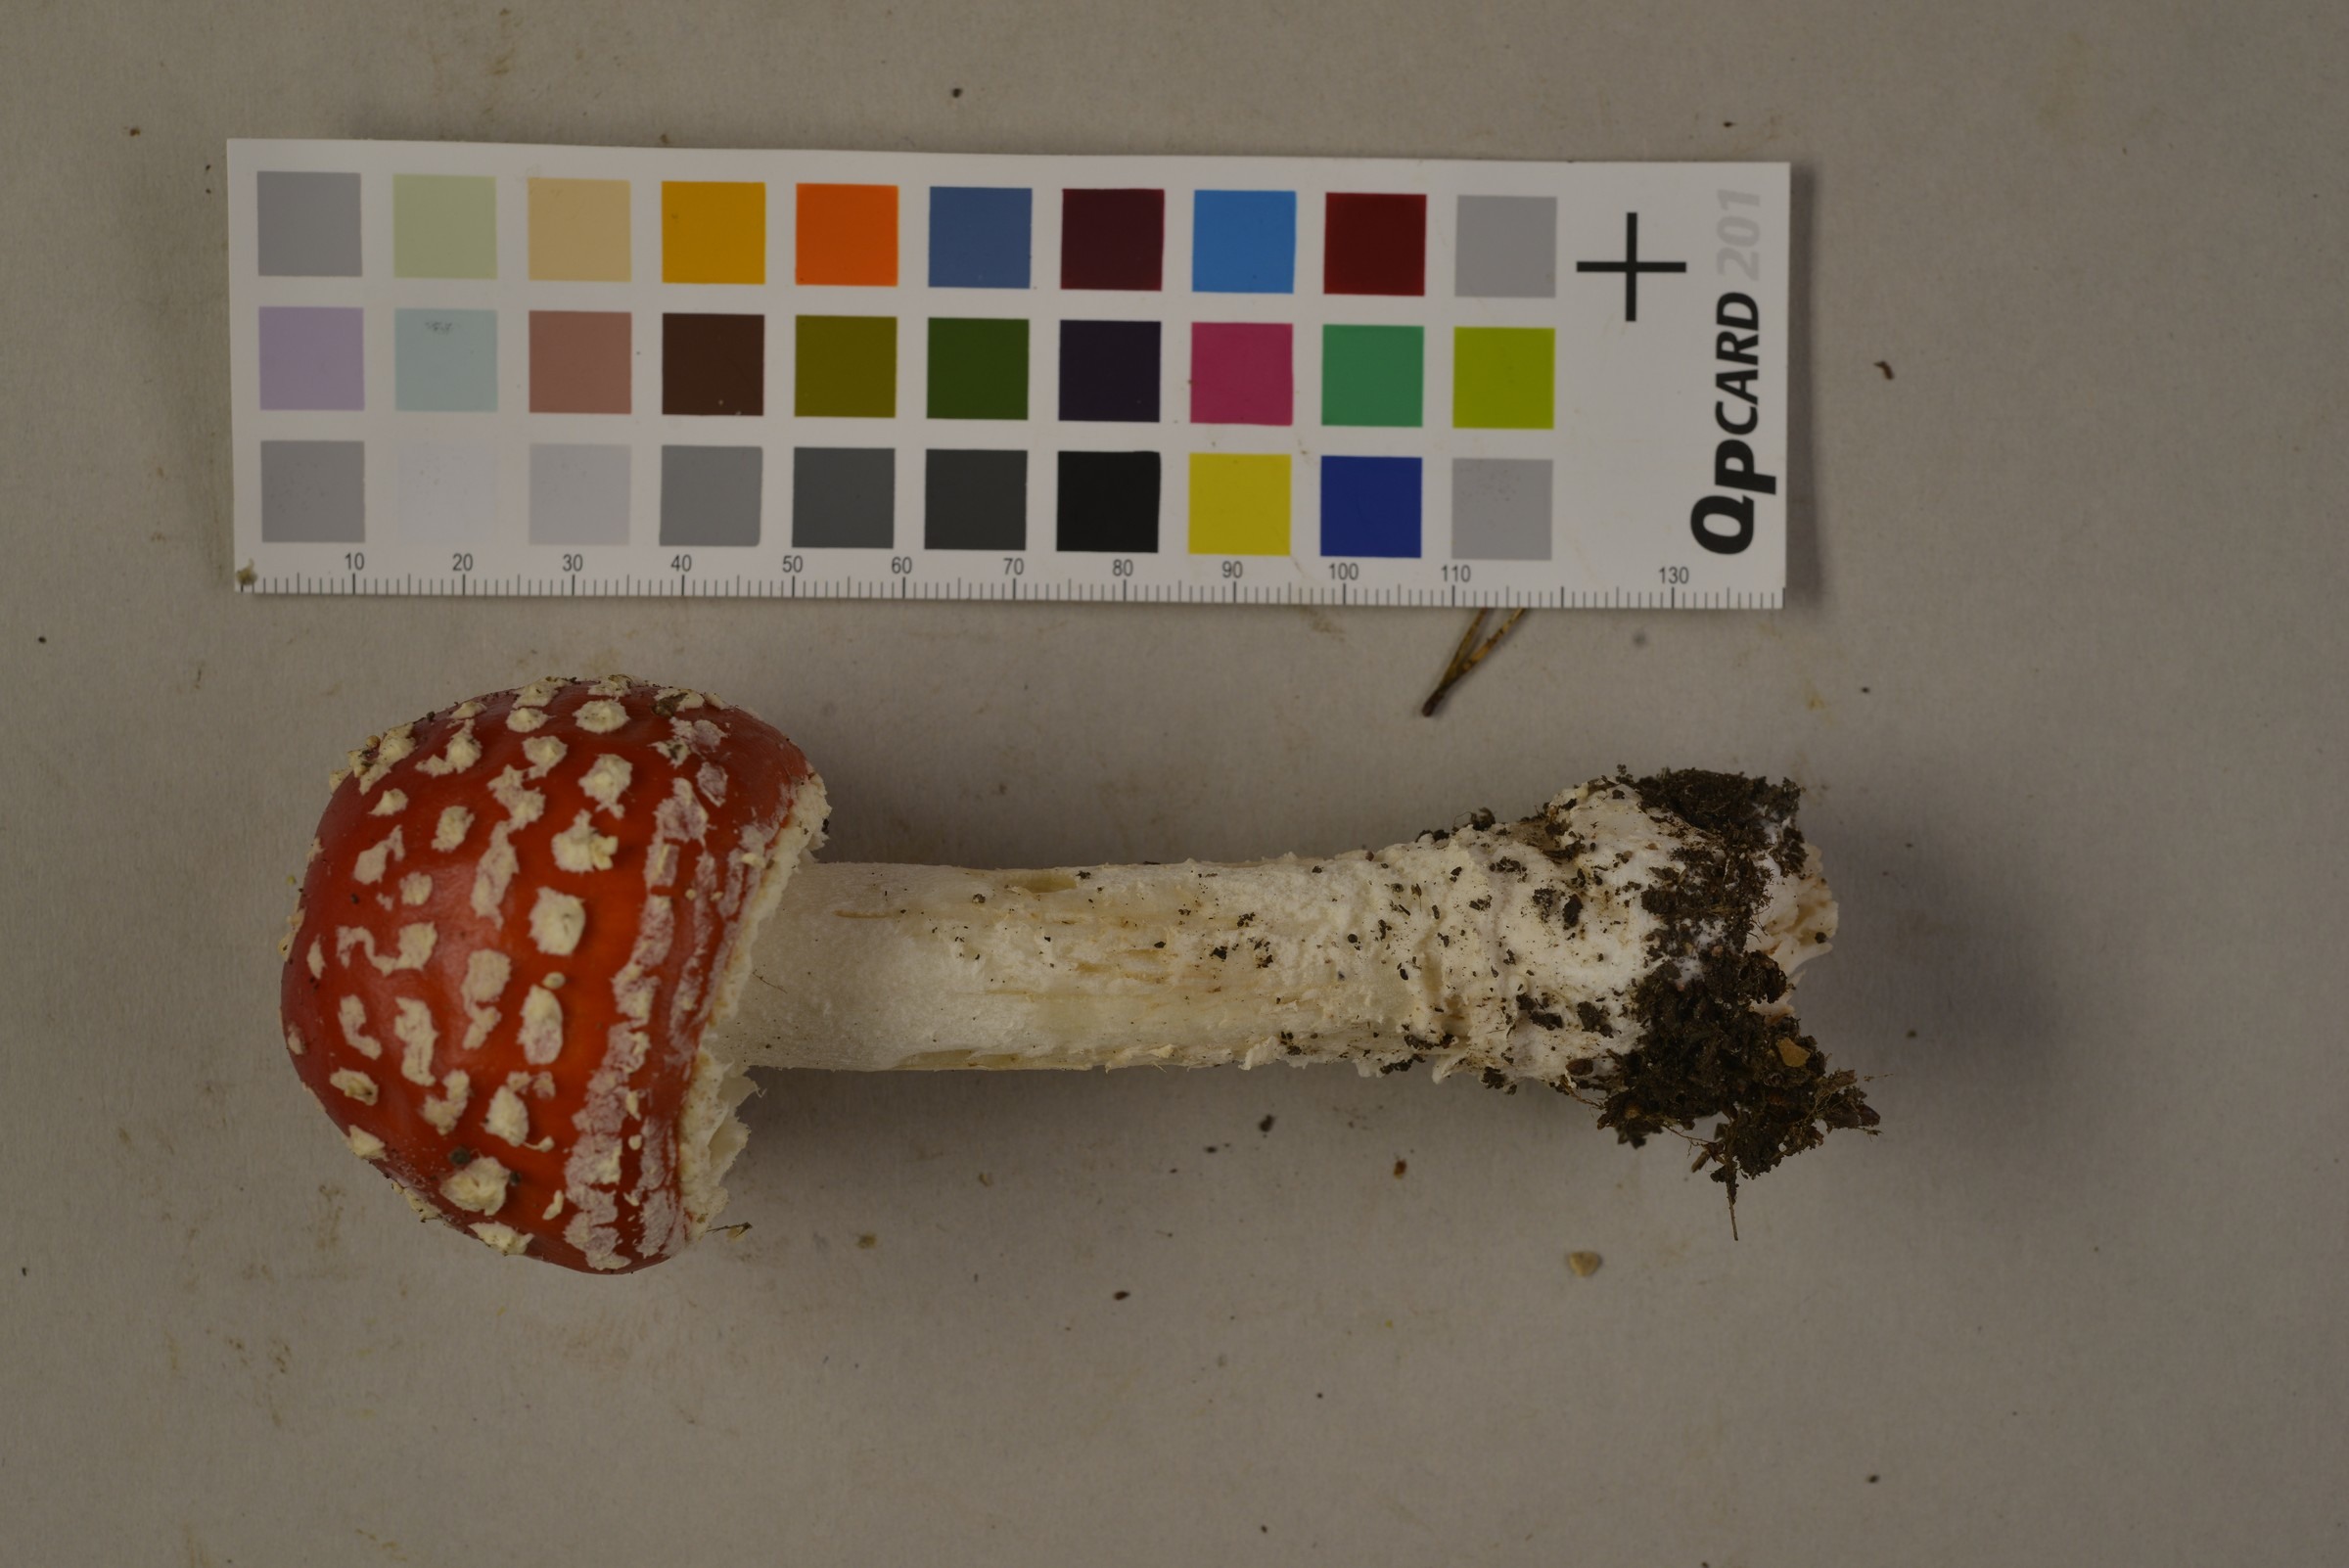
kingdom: Fungi
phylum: Basidiomycota
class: Agaricomycetes
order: Agaricales
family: Amanitaceae
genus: Amanita
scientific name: Amanita muscaria
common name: Fly agaric
